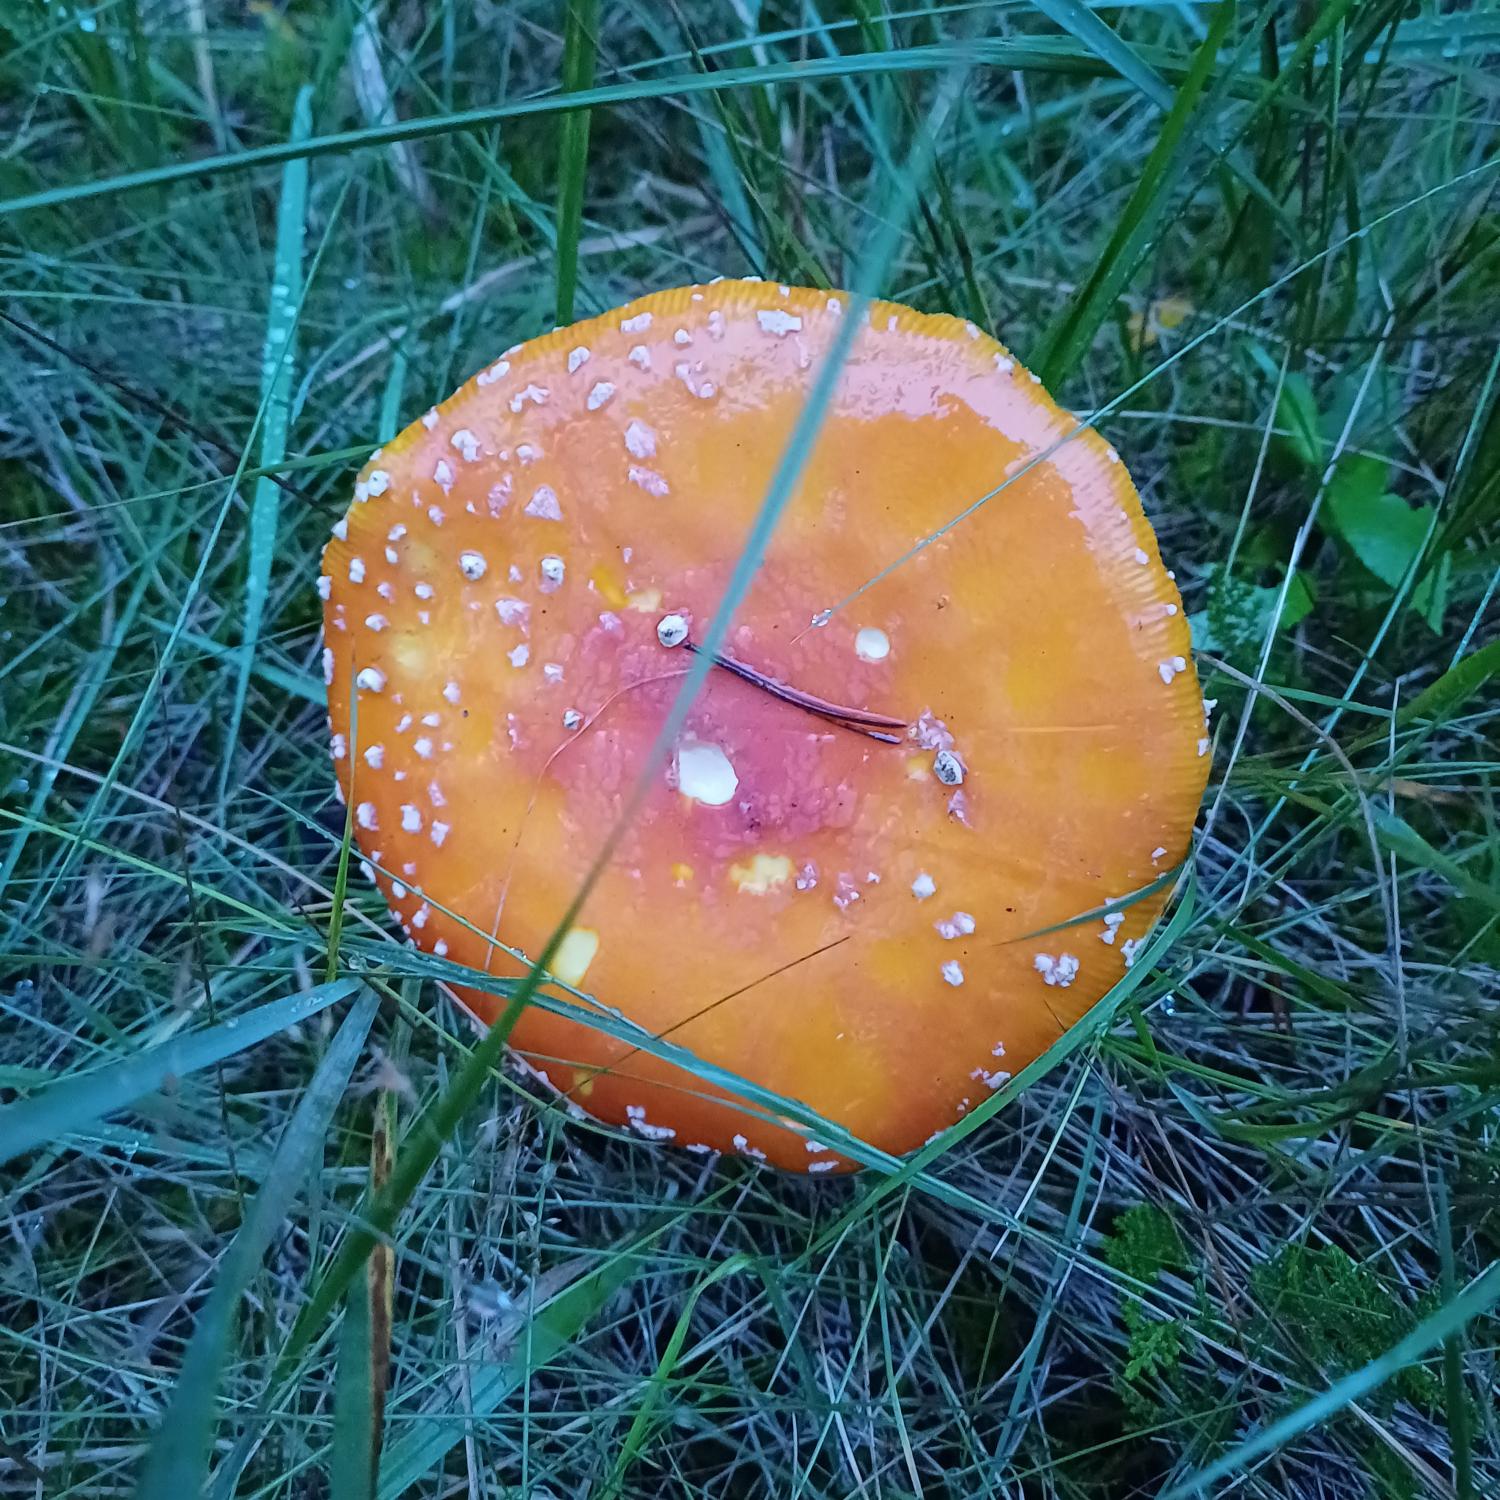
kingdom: Fungi
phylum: Basidiomycota
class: Agaricomycetes
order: Agaricales
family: Amanitaceae
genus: Amanita
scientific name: Amanita muscaria
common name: Rød fluesvamp
